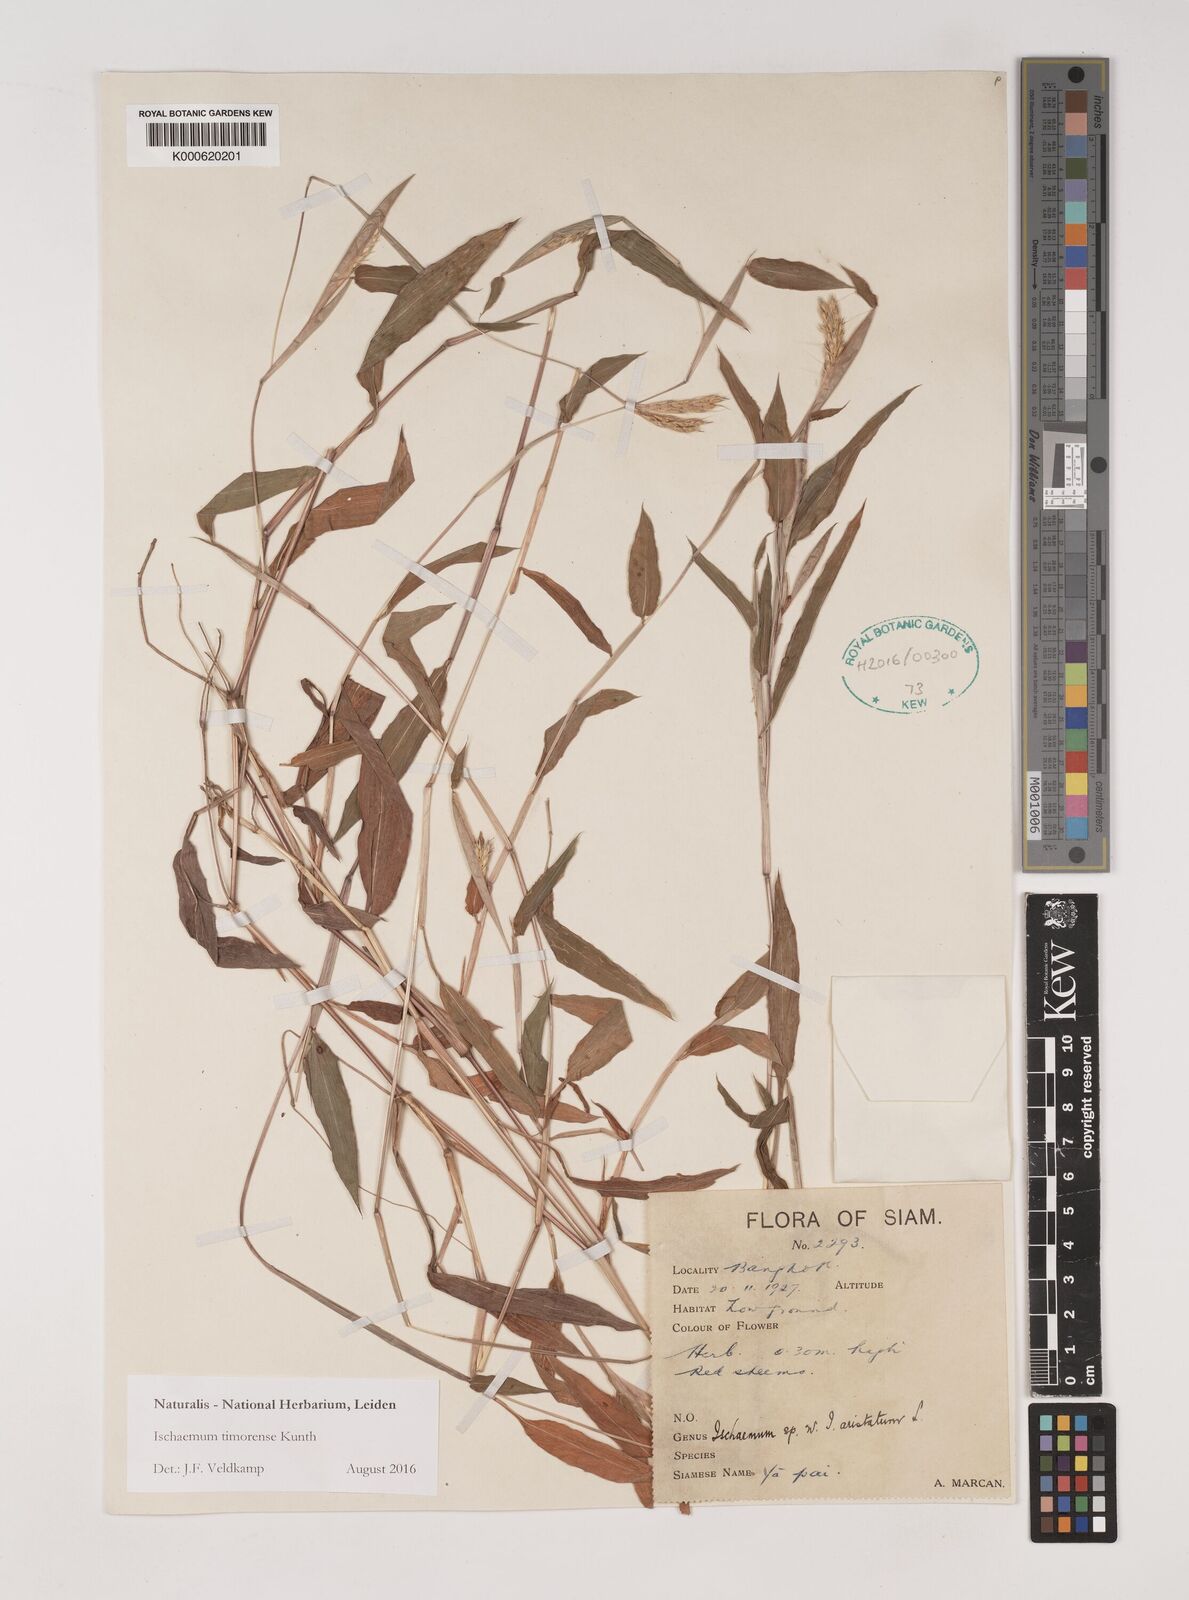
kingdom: Plantae
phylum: Tracheophyta
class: Liliopsida
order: Poales
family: Poaceae
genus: Ischaemum
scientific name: Ischaemum timorense
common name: Stalkleaf murainagrass
